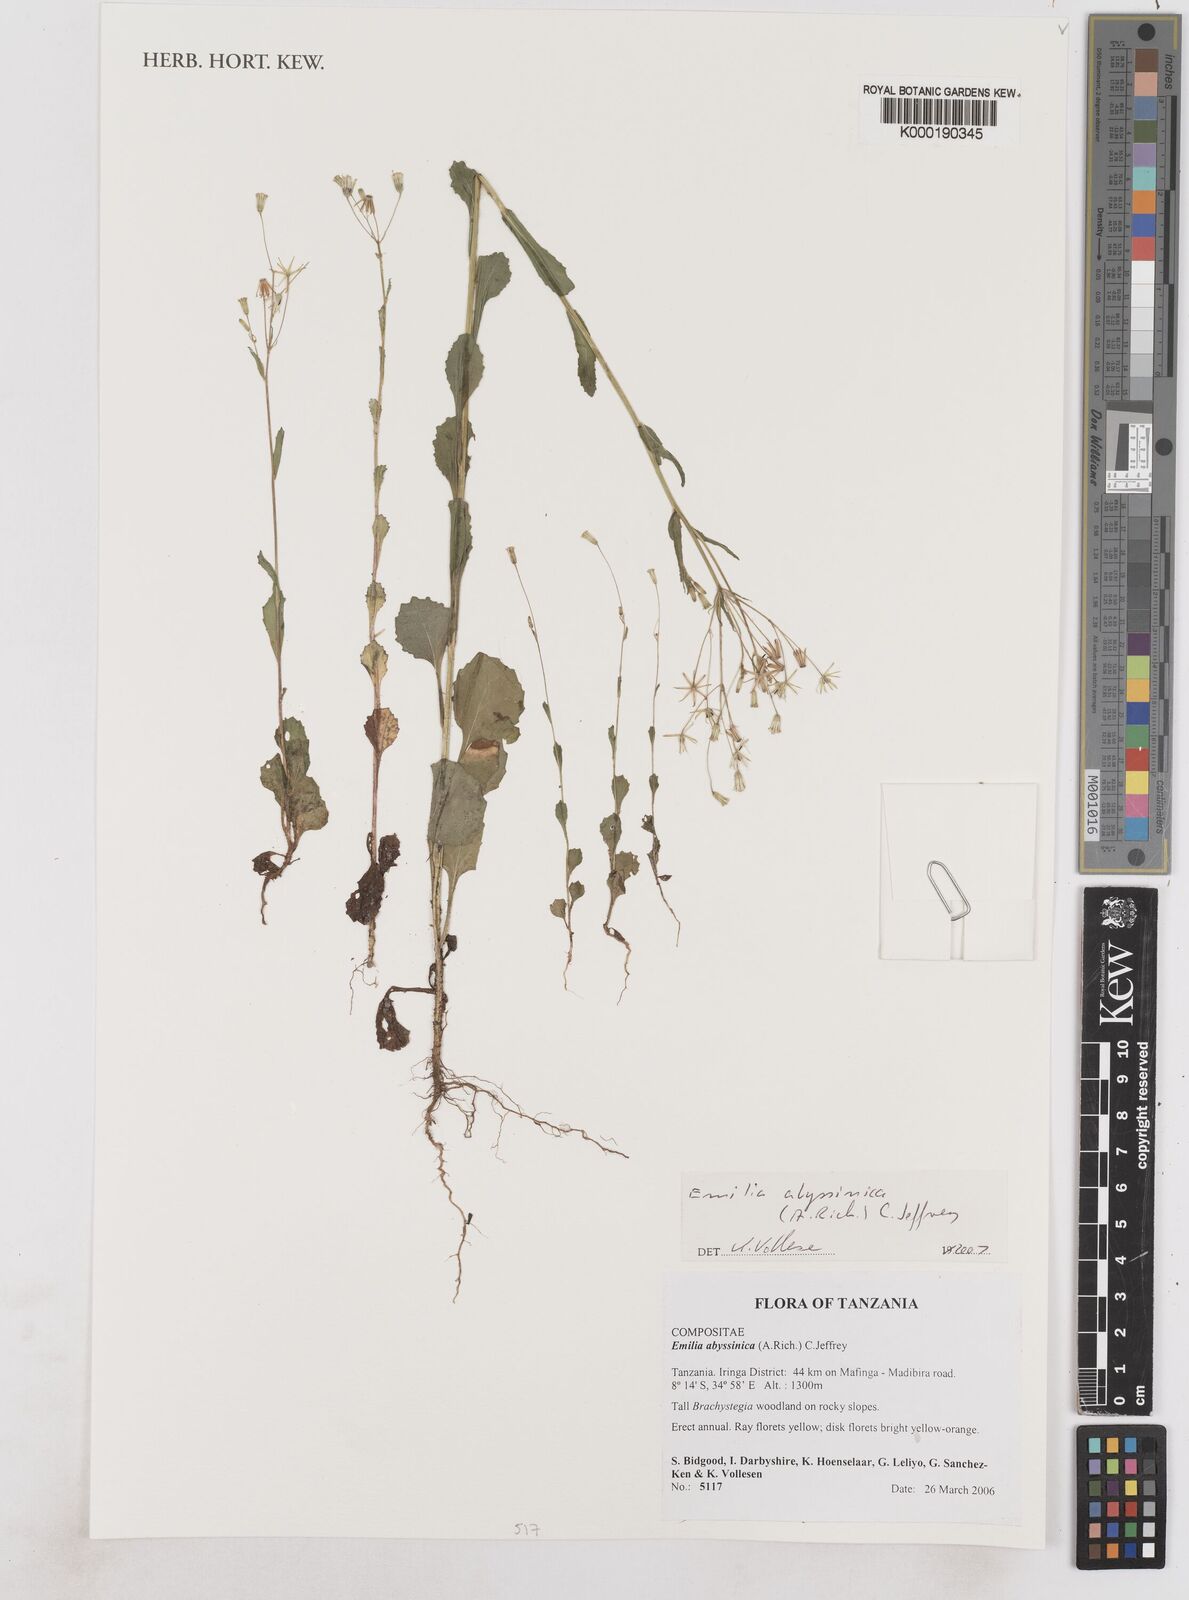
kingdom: Plantae
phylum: Tracheophyta
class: Magnoliopsida
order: Asterales
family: Asteraceae
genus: Emilia
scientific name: Emilia abyssinica
